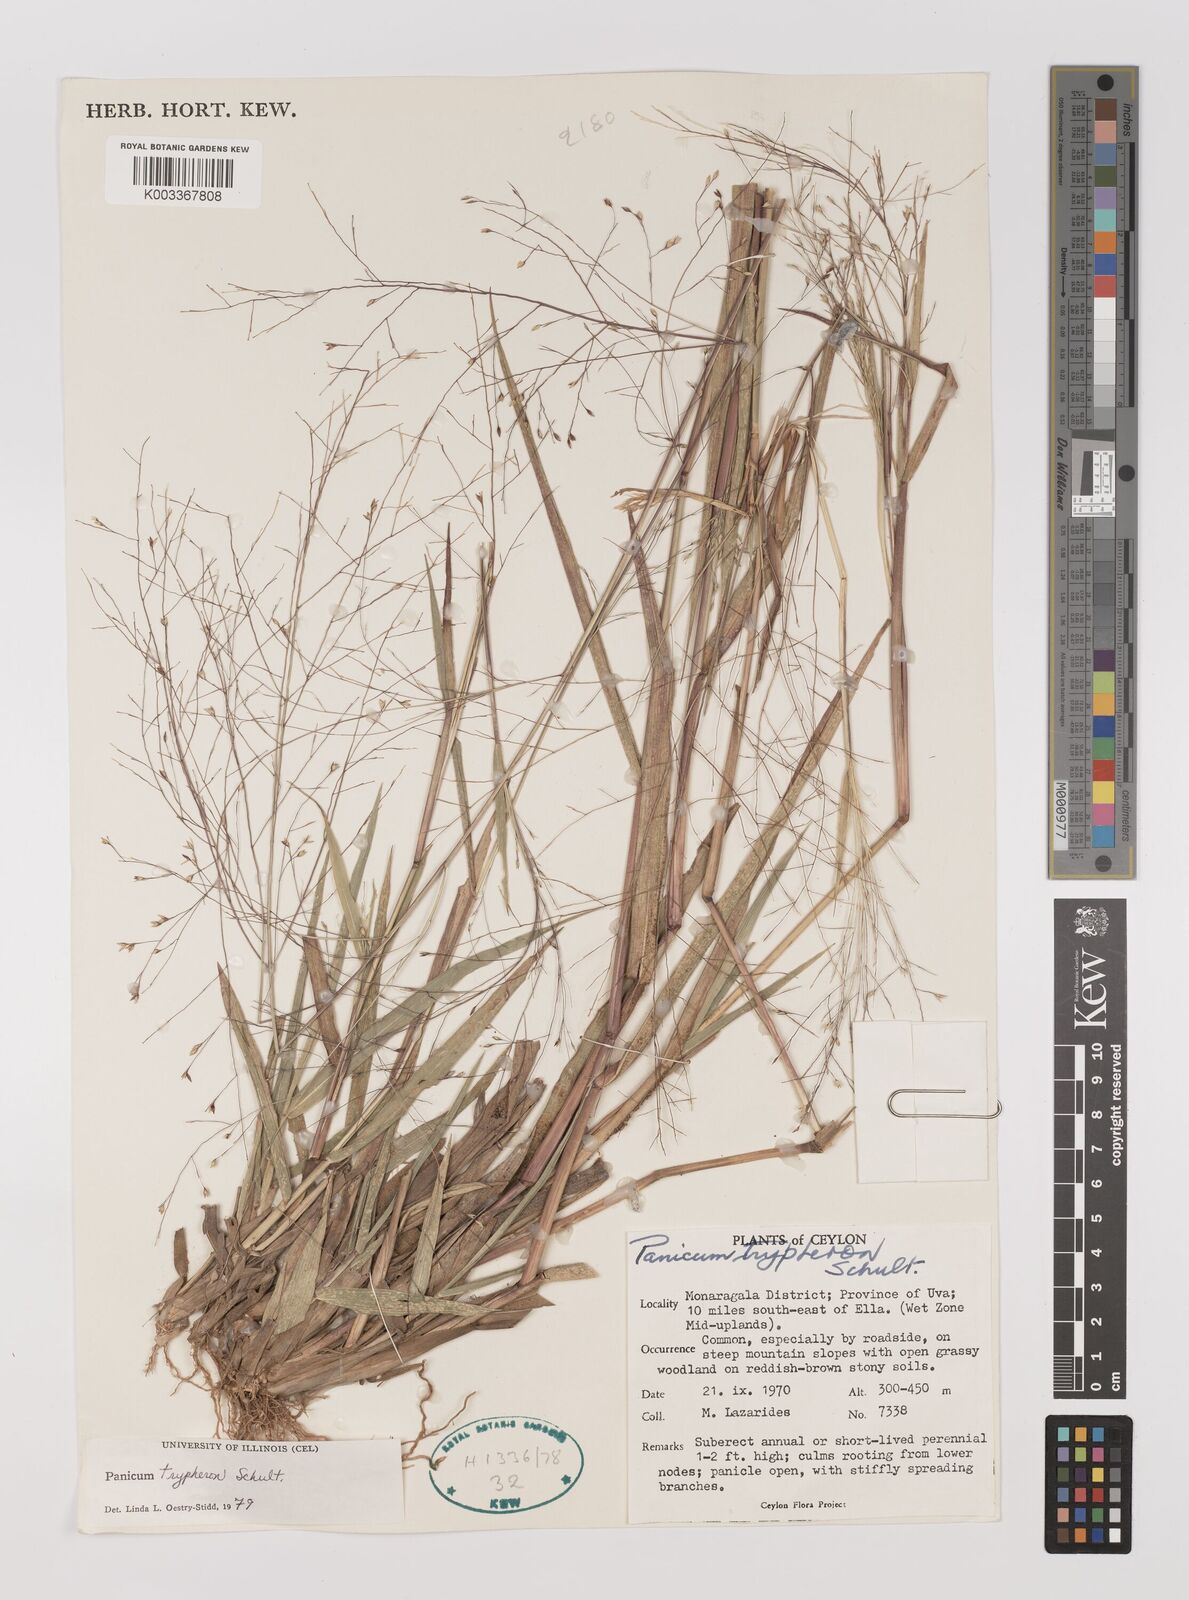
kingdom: Plantae
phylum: Tracheophyta
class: Liliopsida
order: Poales
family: Poaceae
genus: Panicum
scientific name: Panicum curviflorum
